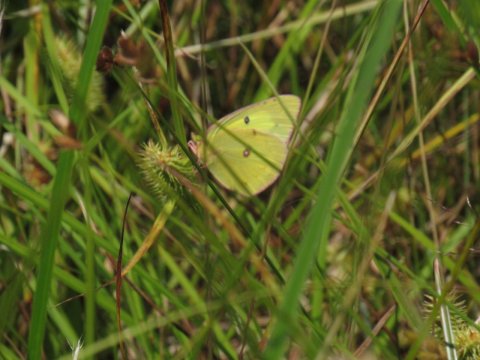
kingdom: Animalia
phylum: Arthropoda
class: Insecta
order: Lepidoptera
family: Pieridae
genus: Colias
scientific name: Colias philodice
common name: Clouded Sulphur
